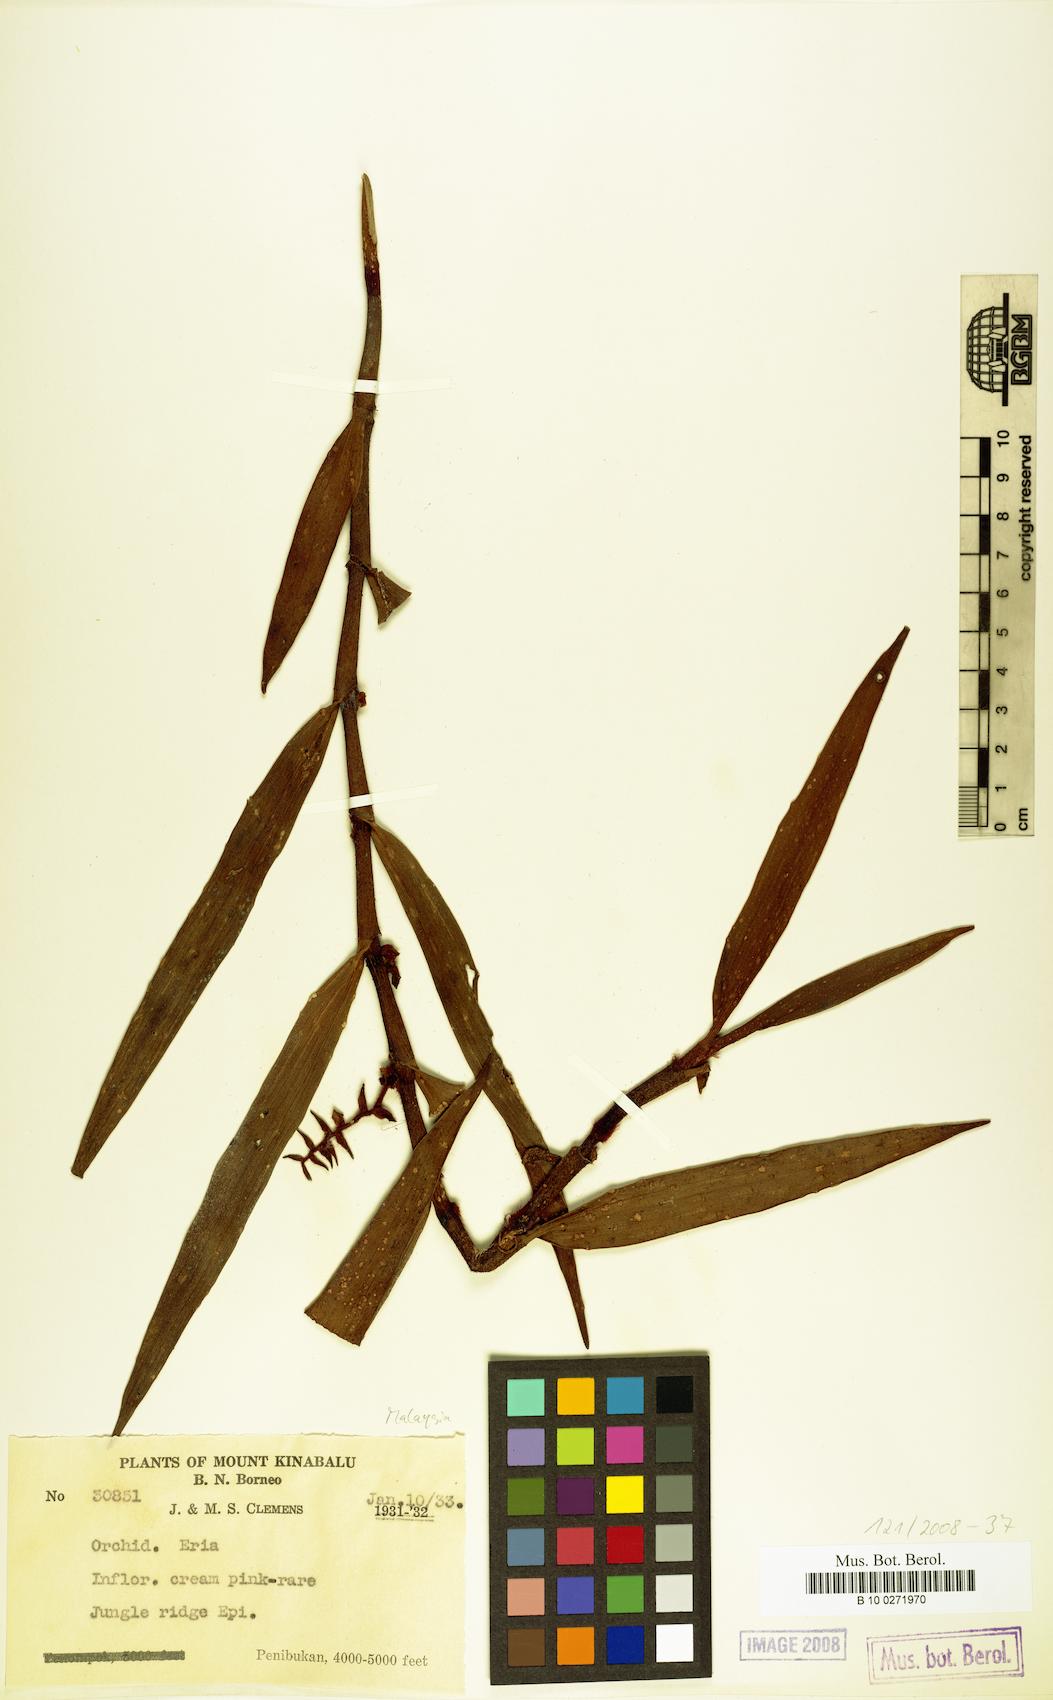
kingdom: Plantae
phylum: Tracheophyta
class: Liliopsida
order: Asparagales
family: Orchidaceae
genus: Eria
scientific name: Eria
